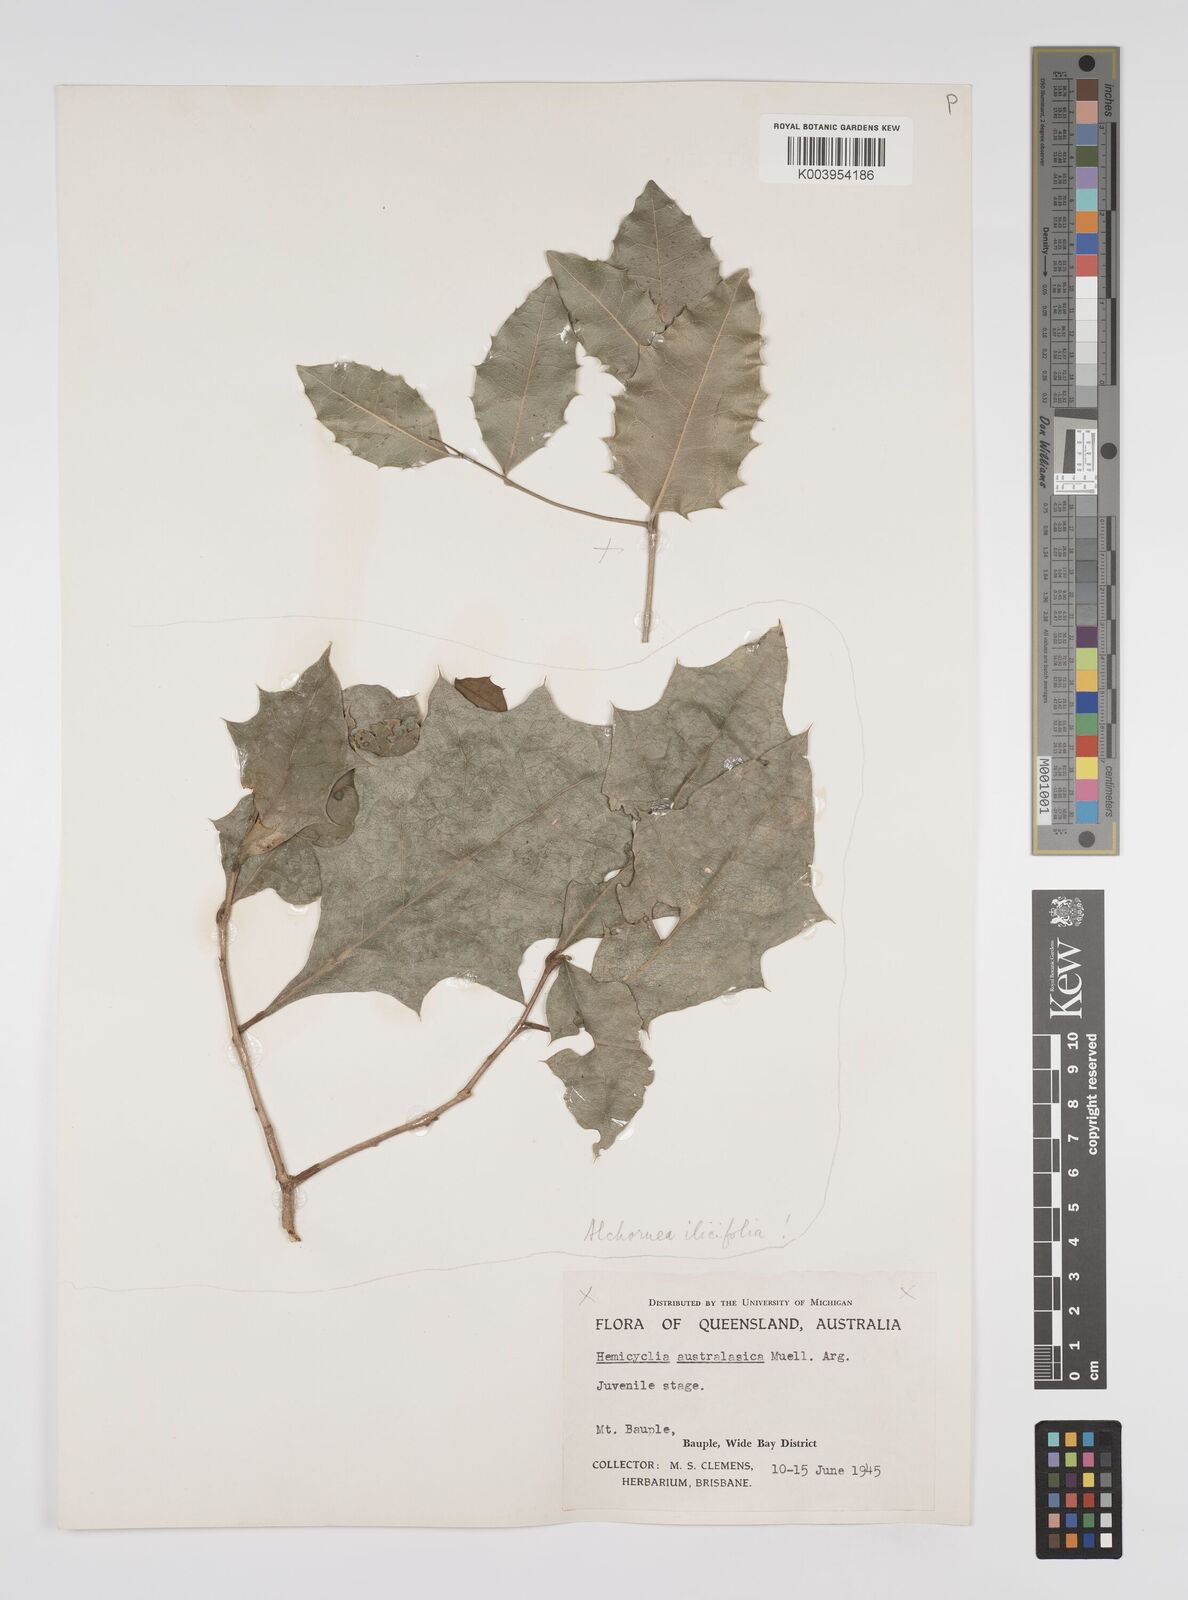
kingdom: Plantae
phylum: Tracheophyta
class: Magnoliopsida
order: Malpighiales
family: Euphorbiaceae
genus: Alchornea
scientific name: Alchornea ilicifolia
